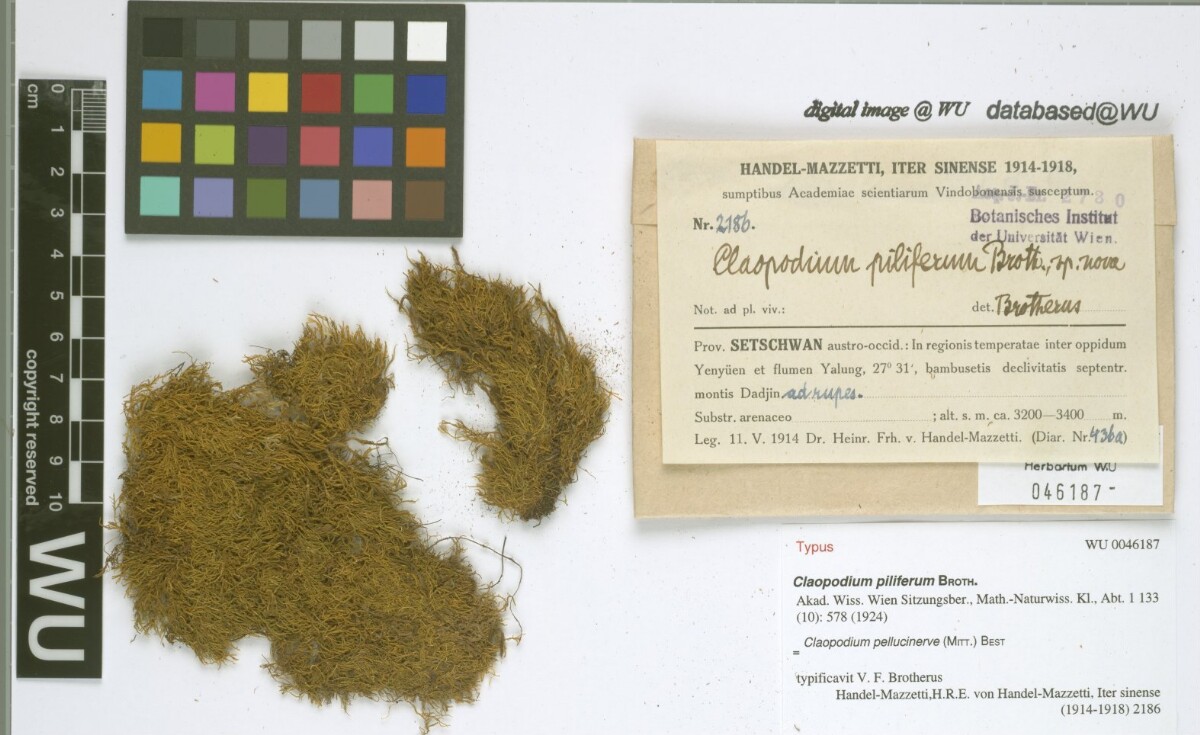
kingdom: Plantae
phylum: Bryophyta
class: Bryopsida
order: Hypnales
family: Brachytheciaceae
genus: Claopodium
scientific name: Claopodium pellucinerve
